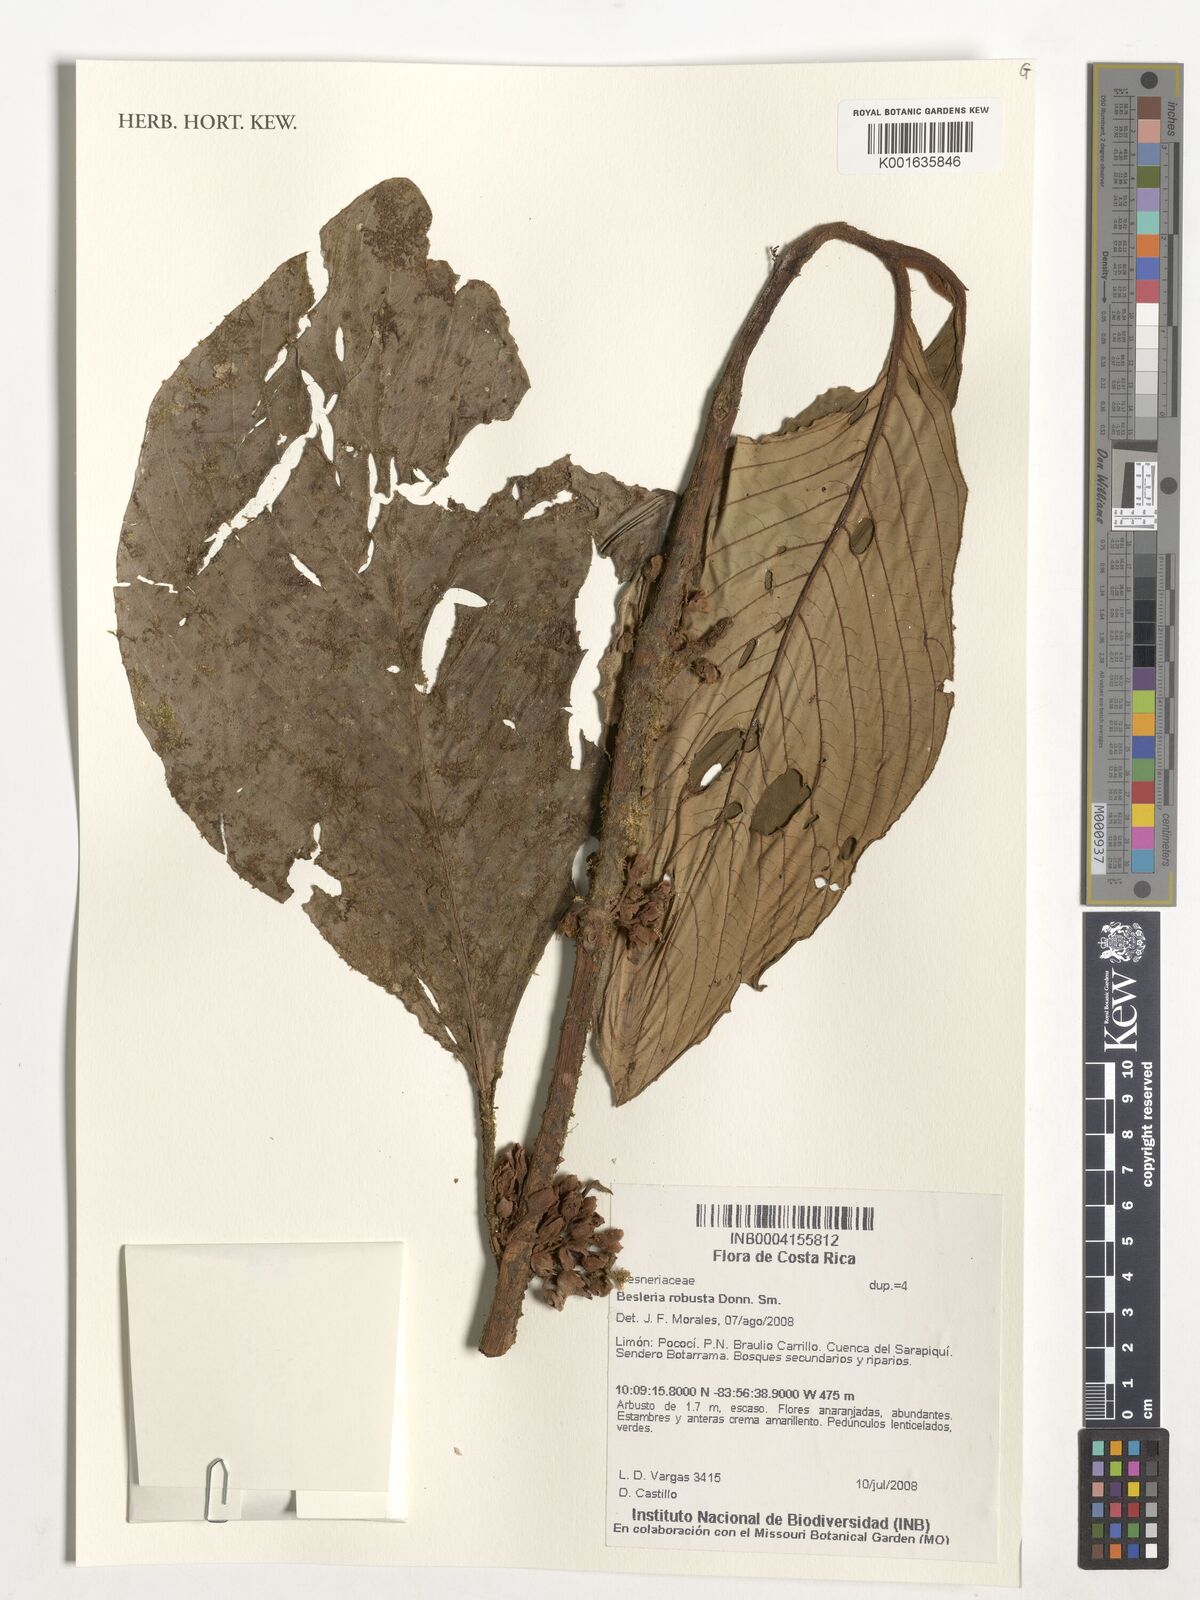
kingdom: Plantae
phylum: Tracheophyta
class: Magnoliopsida
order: Lamiales
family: Gesneriaceae
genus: Besleria
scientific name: Besleria robusta
